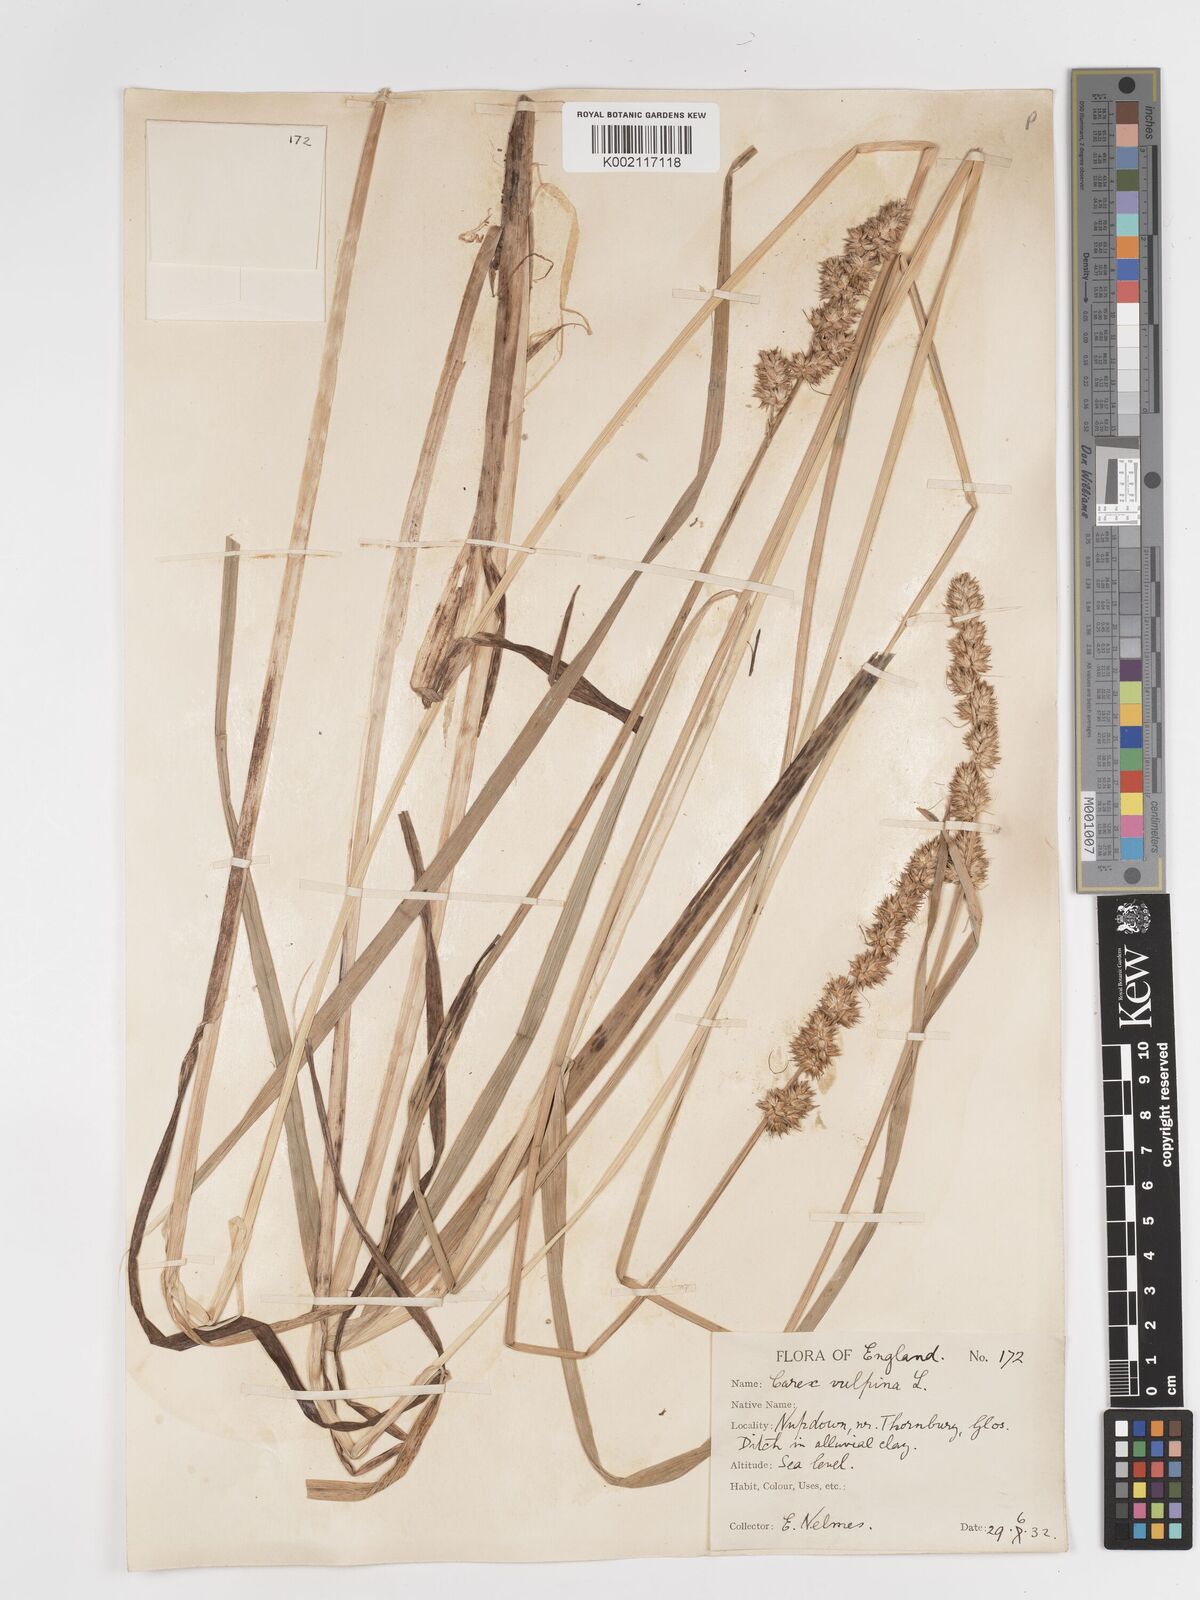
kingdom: Plantae
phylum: Tracheophyta
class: Liliopsida
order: Poales
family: Cyperaceae
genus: Carex
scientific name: Carex vulpina
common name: True fox-sedge
